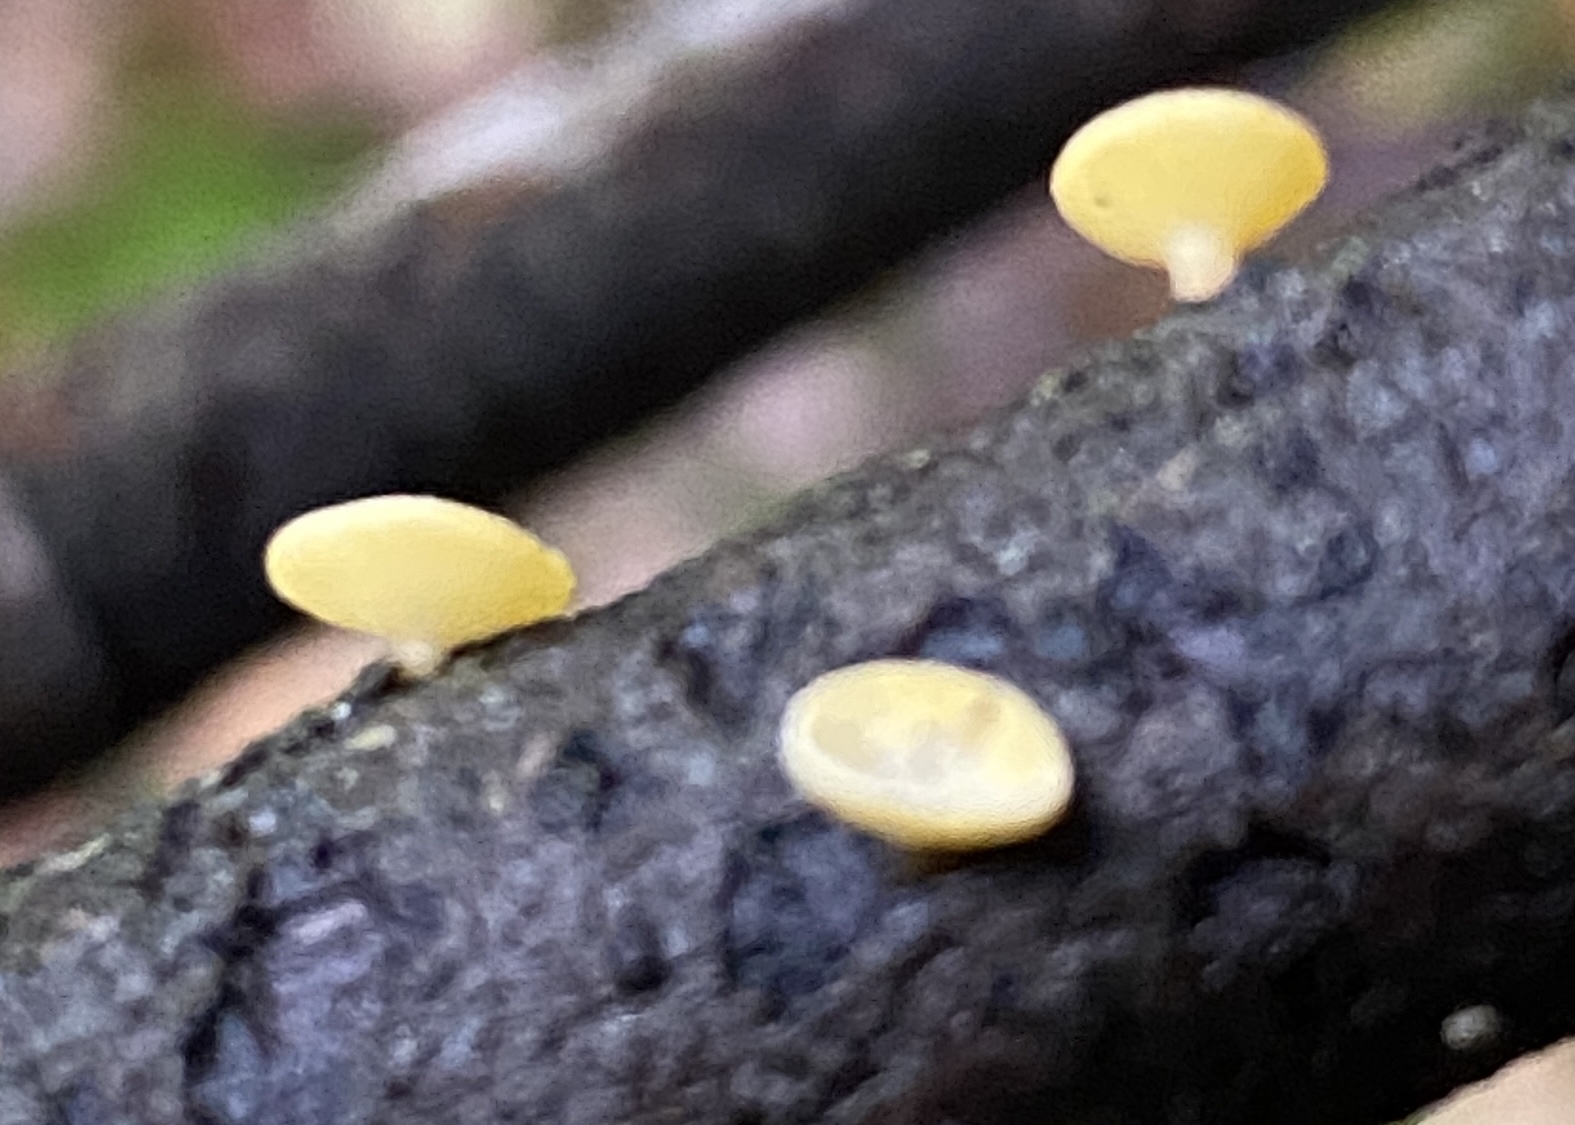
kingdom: Fungi
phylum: Ascomycota
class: Leotiomycetes
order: Helotiales
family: Helotiaceae
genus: Hymenoscyphus
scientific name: Hymenoscyphus
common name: stilkskive
